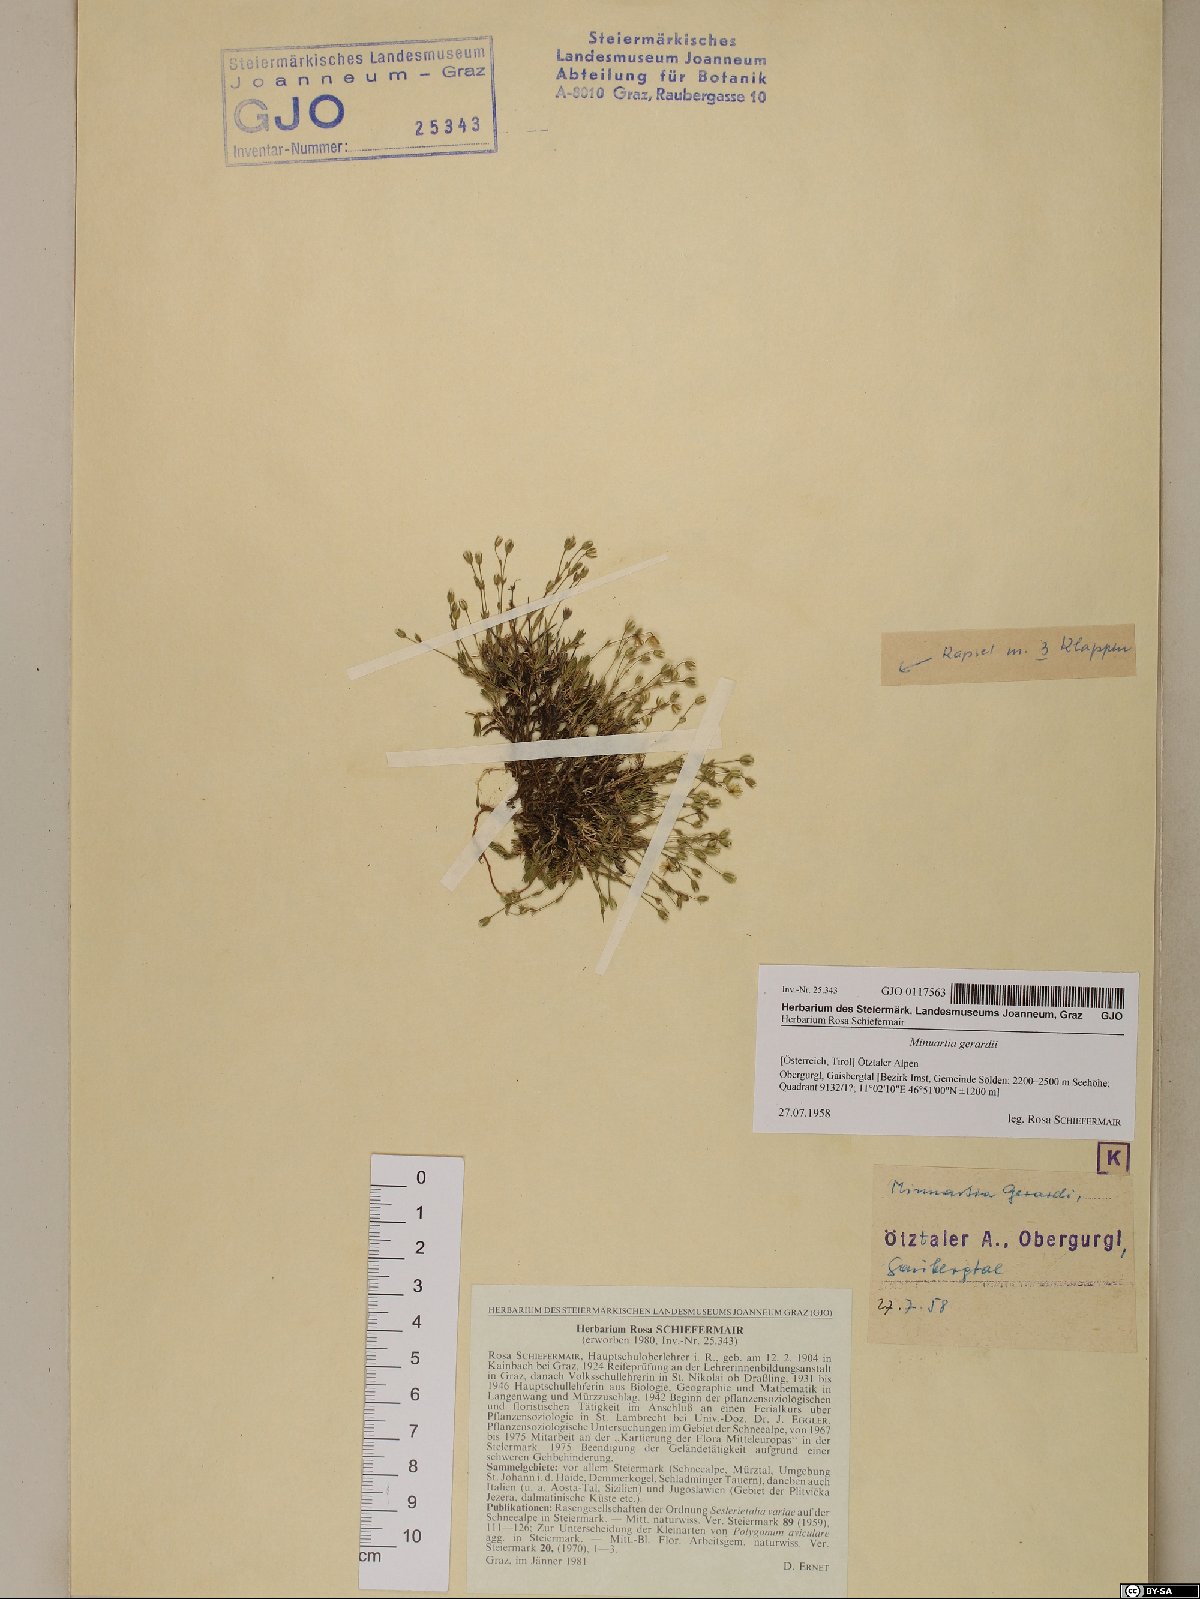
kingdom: Plantae
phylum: Tracheophyta
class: Magnoliopsida
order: Caryophyllales
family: Caryophyllaceae
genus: Sabulina
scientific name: Sabulina verna
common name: Spring sandwort
